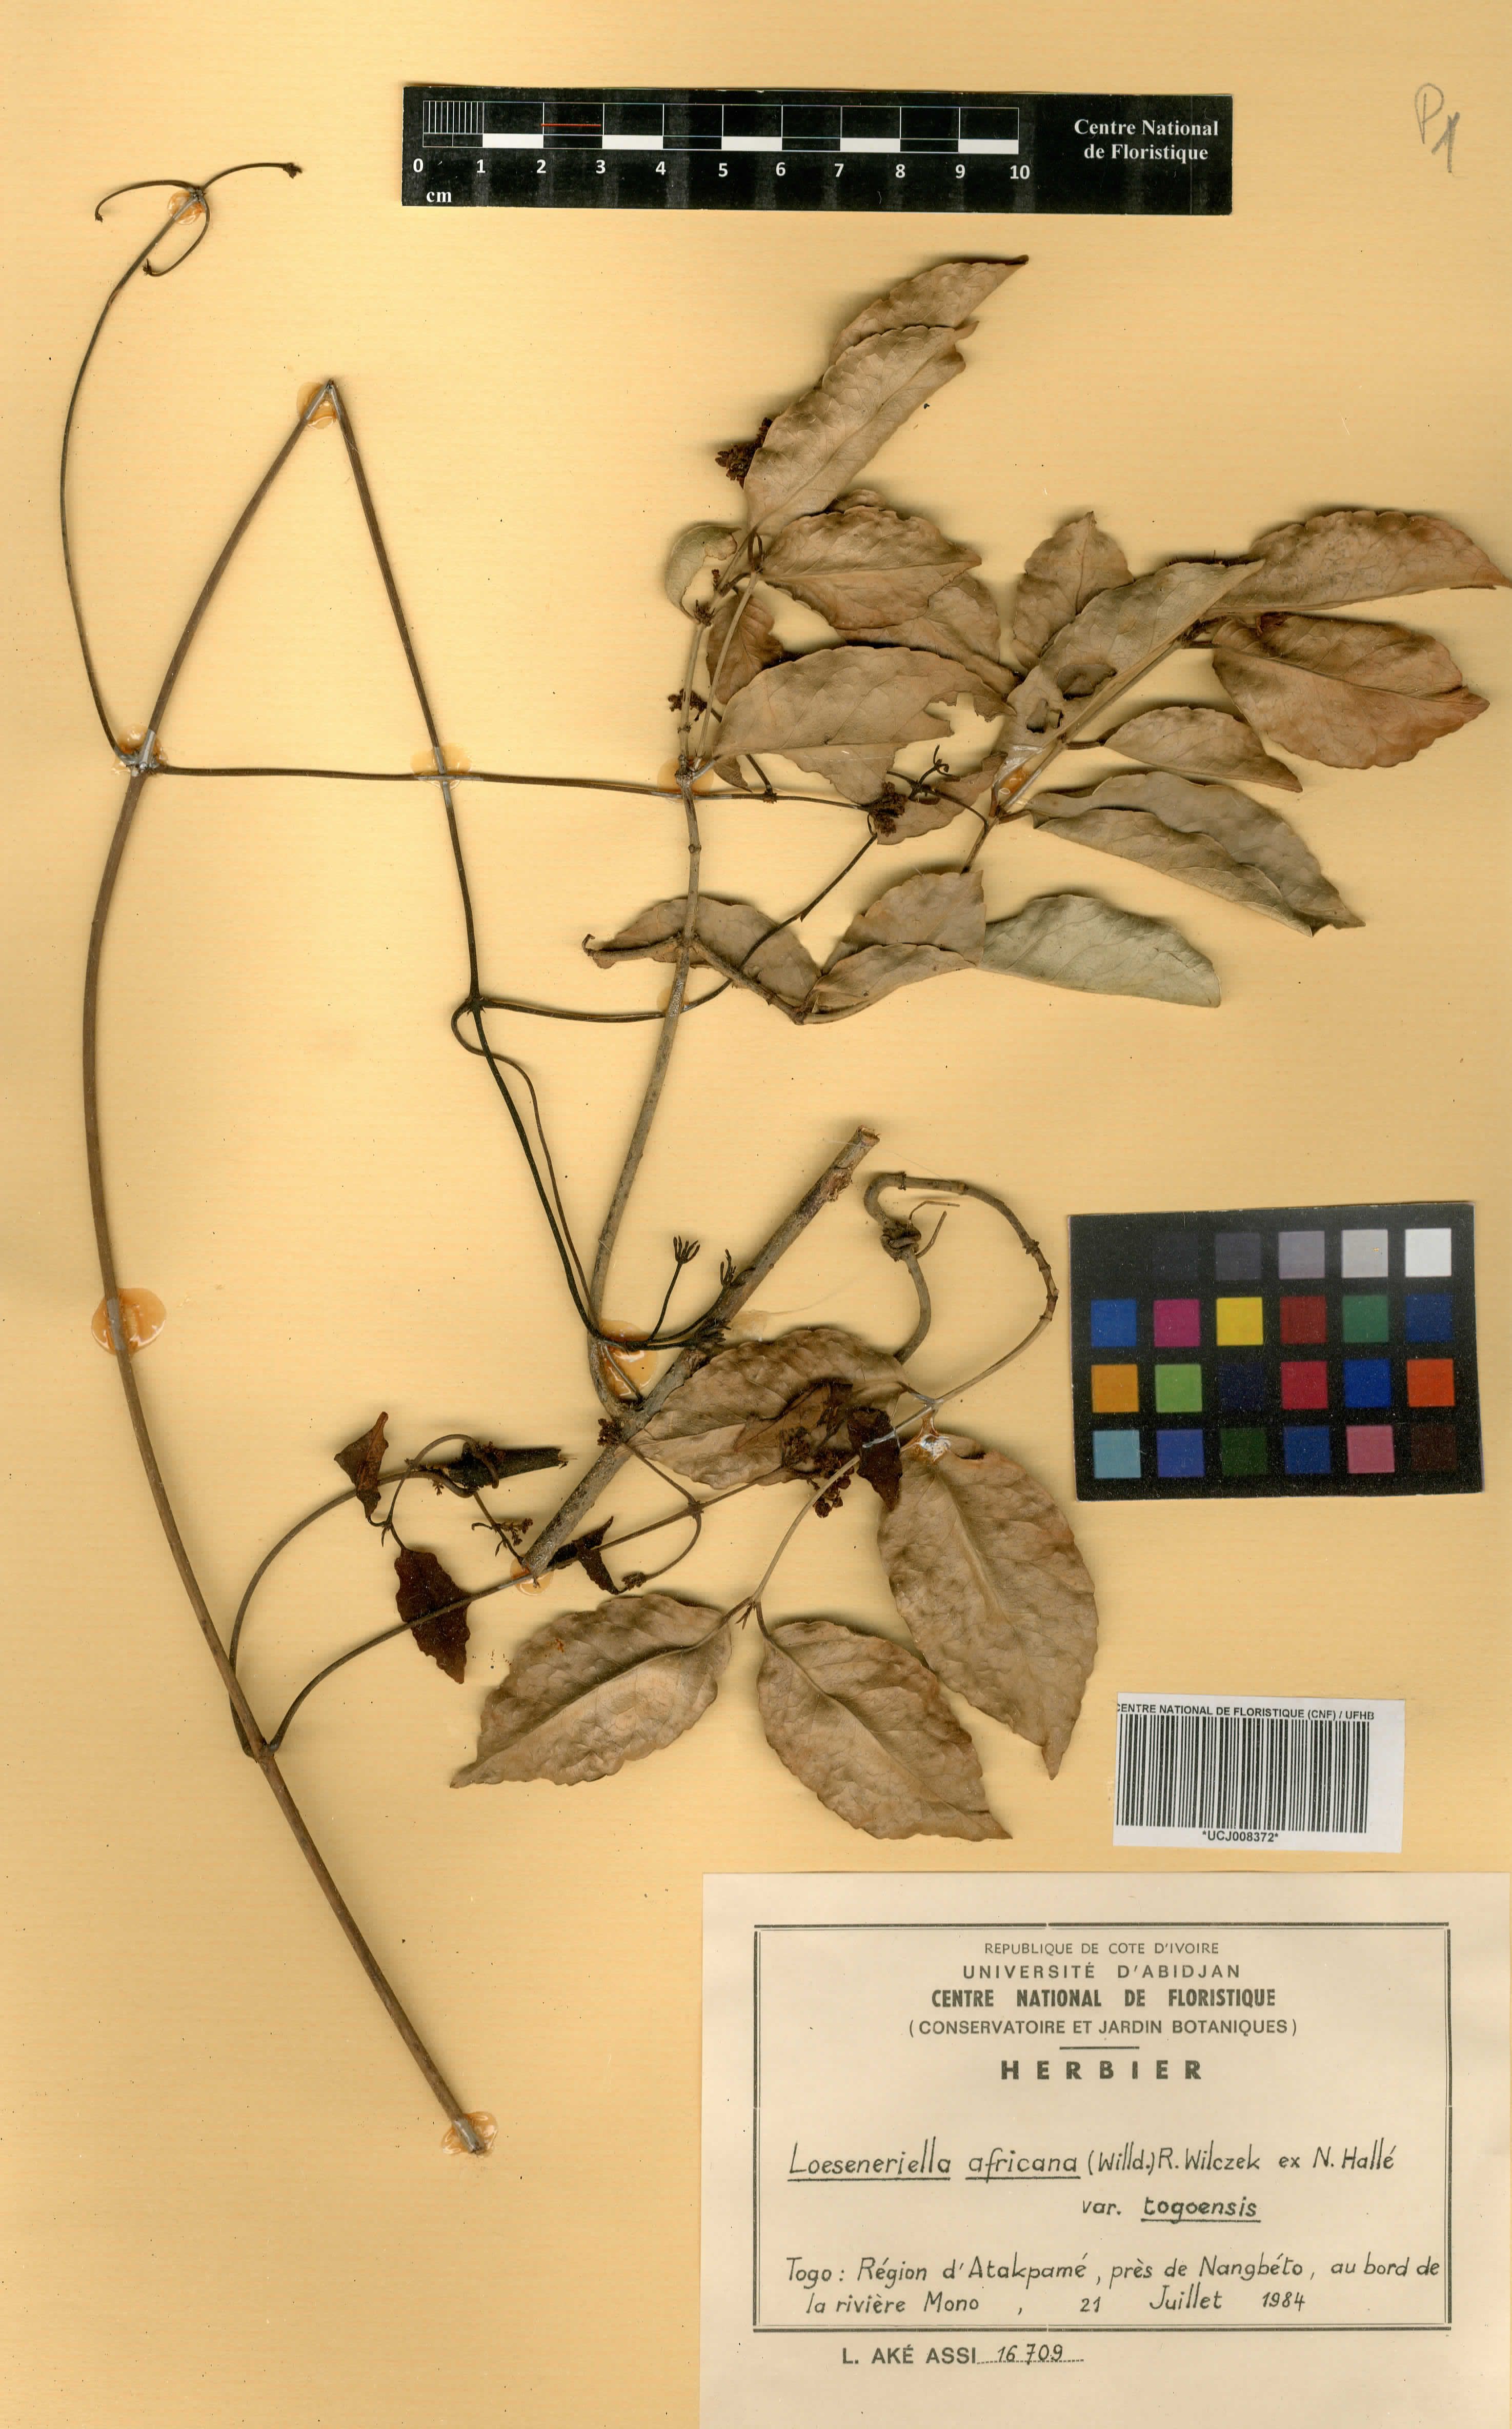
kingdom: Plantae
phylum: Tracheophyta
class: Magnoliopsida
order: Celastrales
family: Celastraceae
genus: Loeseneriella
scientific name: Loeseneriella africana
